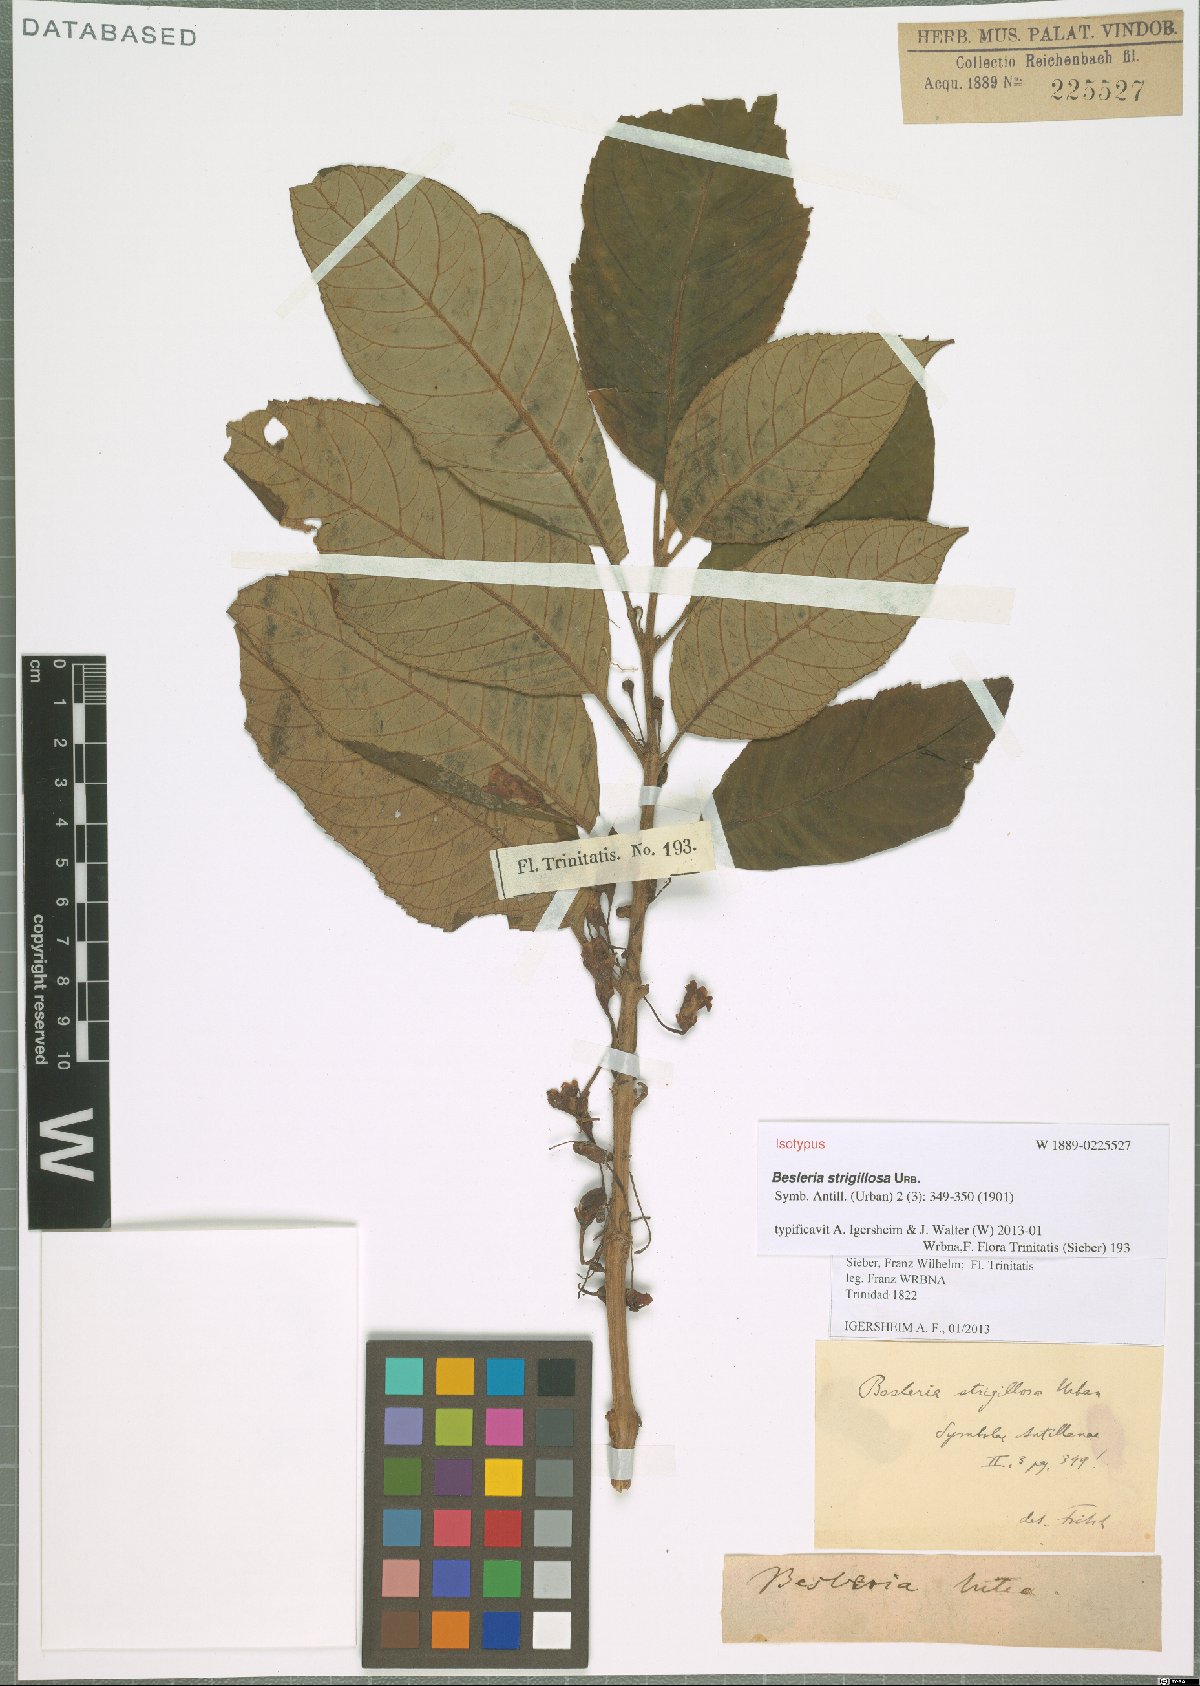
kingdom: Plantae
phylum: Tracheophyta
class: Magnoliopsida
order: Lamiales
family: Gesneriaceae
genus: Besleria
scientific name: Besleria strigillosa
